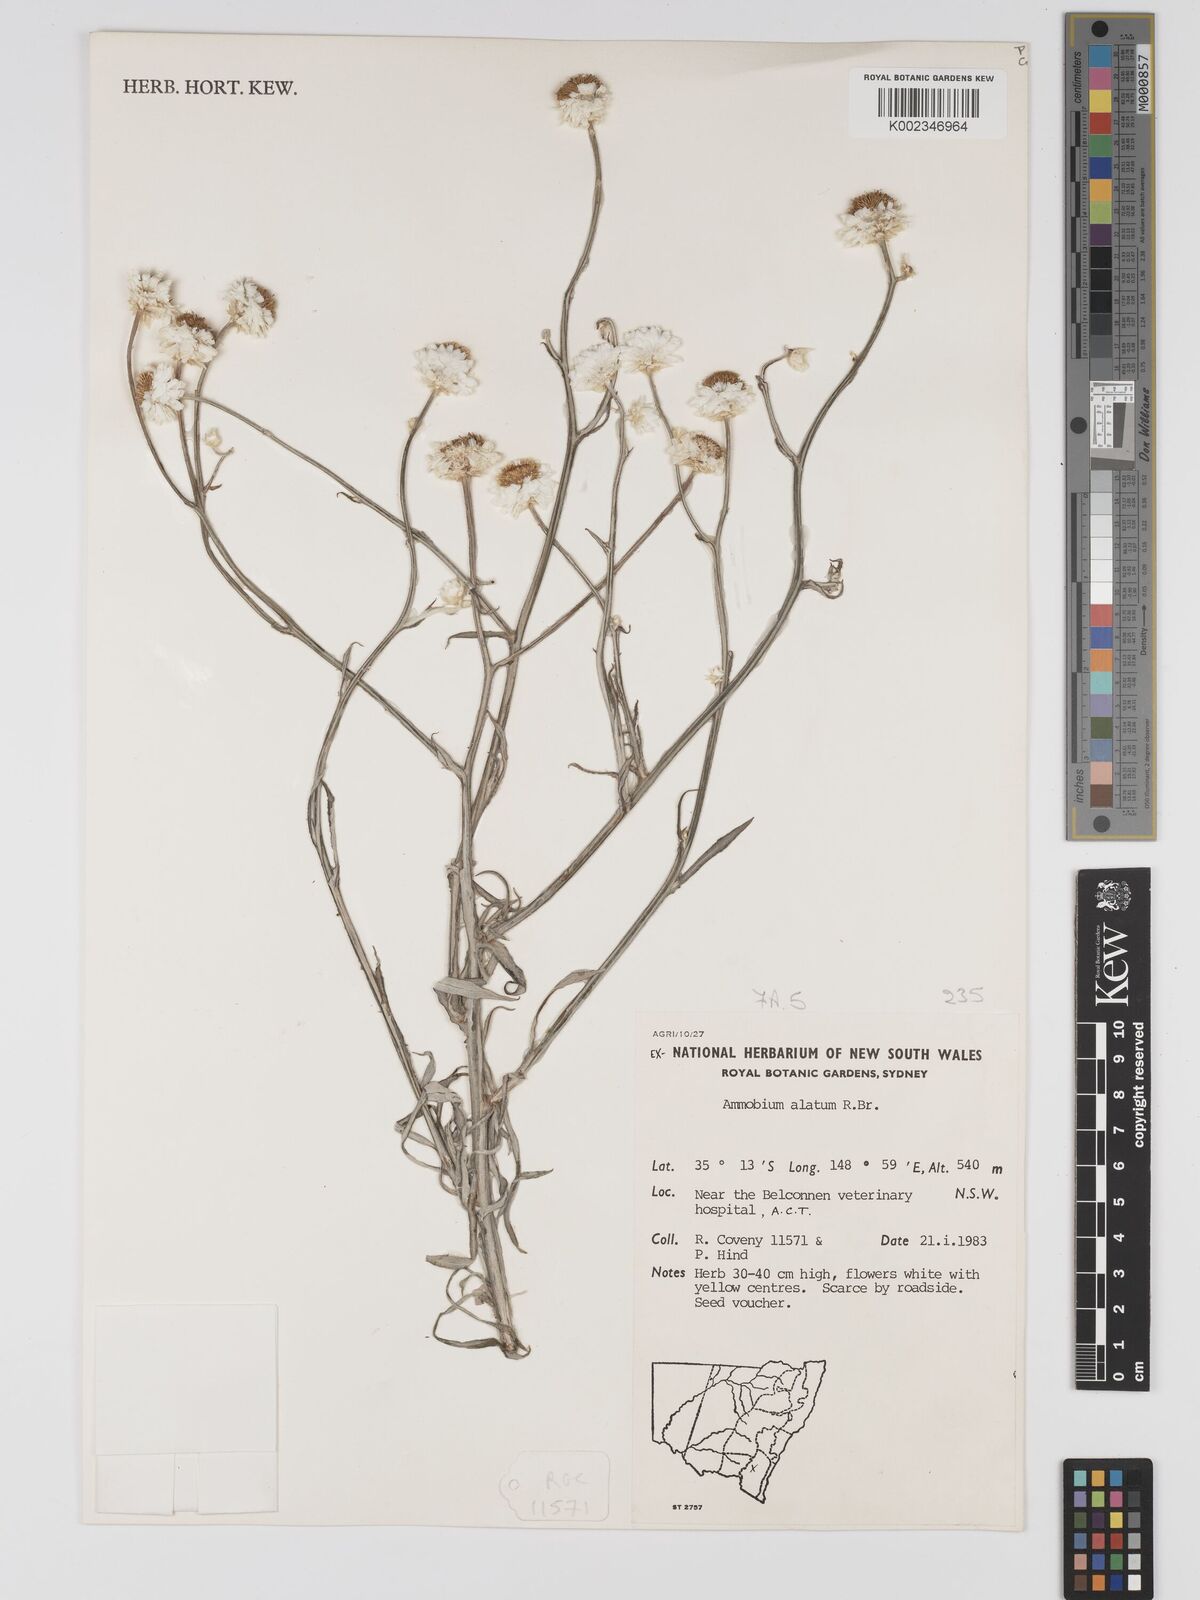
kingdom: Plantae
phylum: Tracheophyta
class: Magnoliopsida
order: Asterales
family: Asteraceae
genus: Ammobium
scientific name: Ammobium alatum
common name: Winged everlasting
